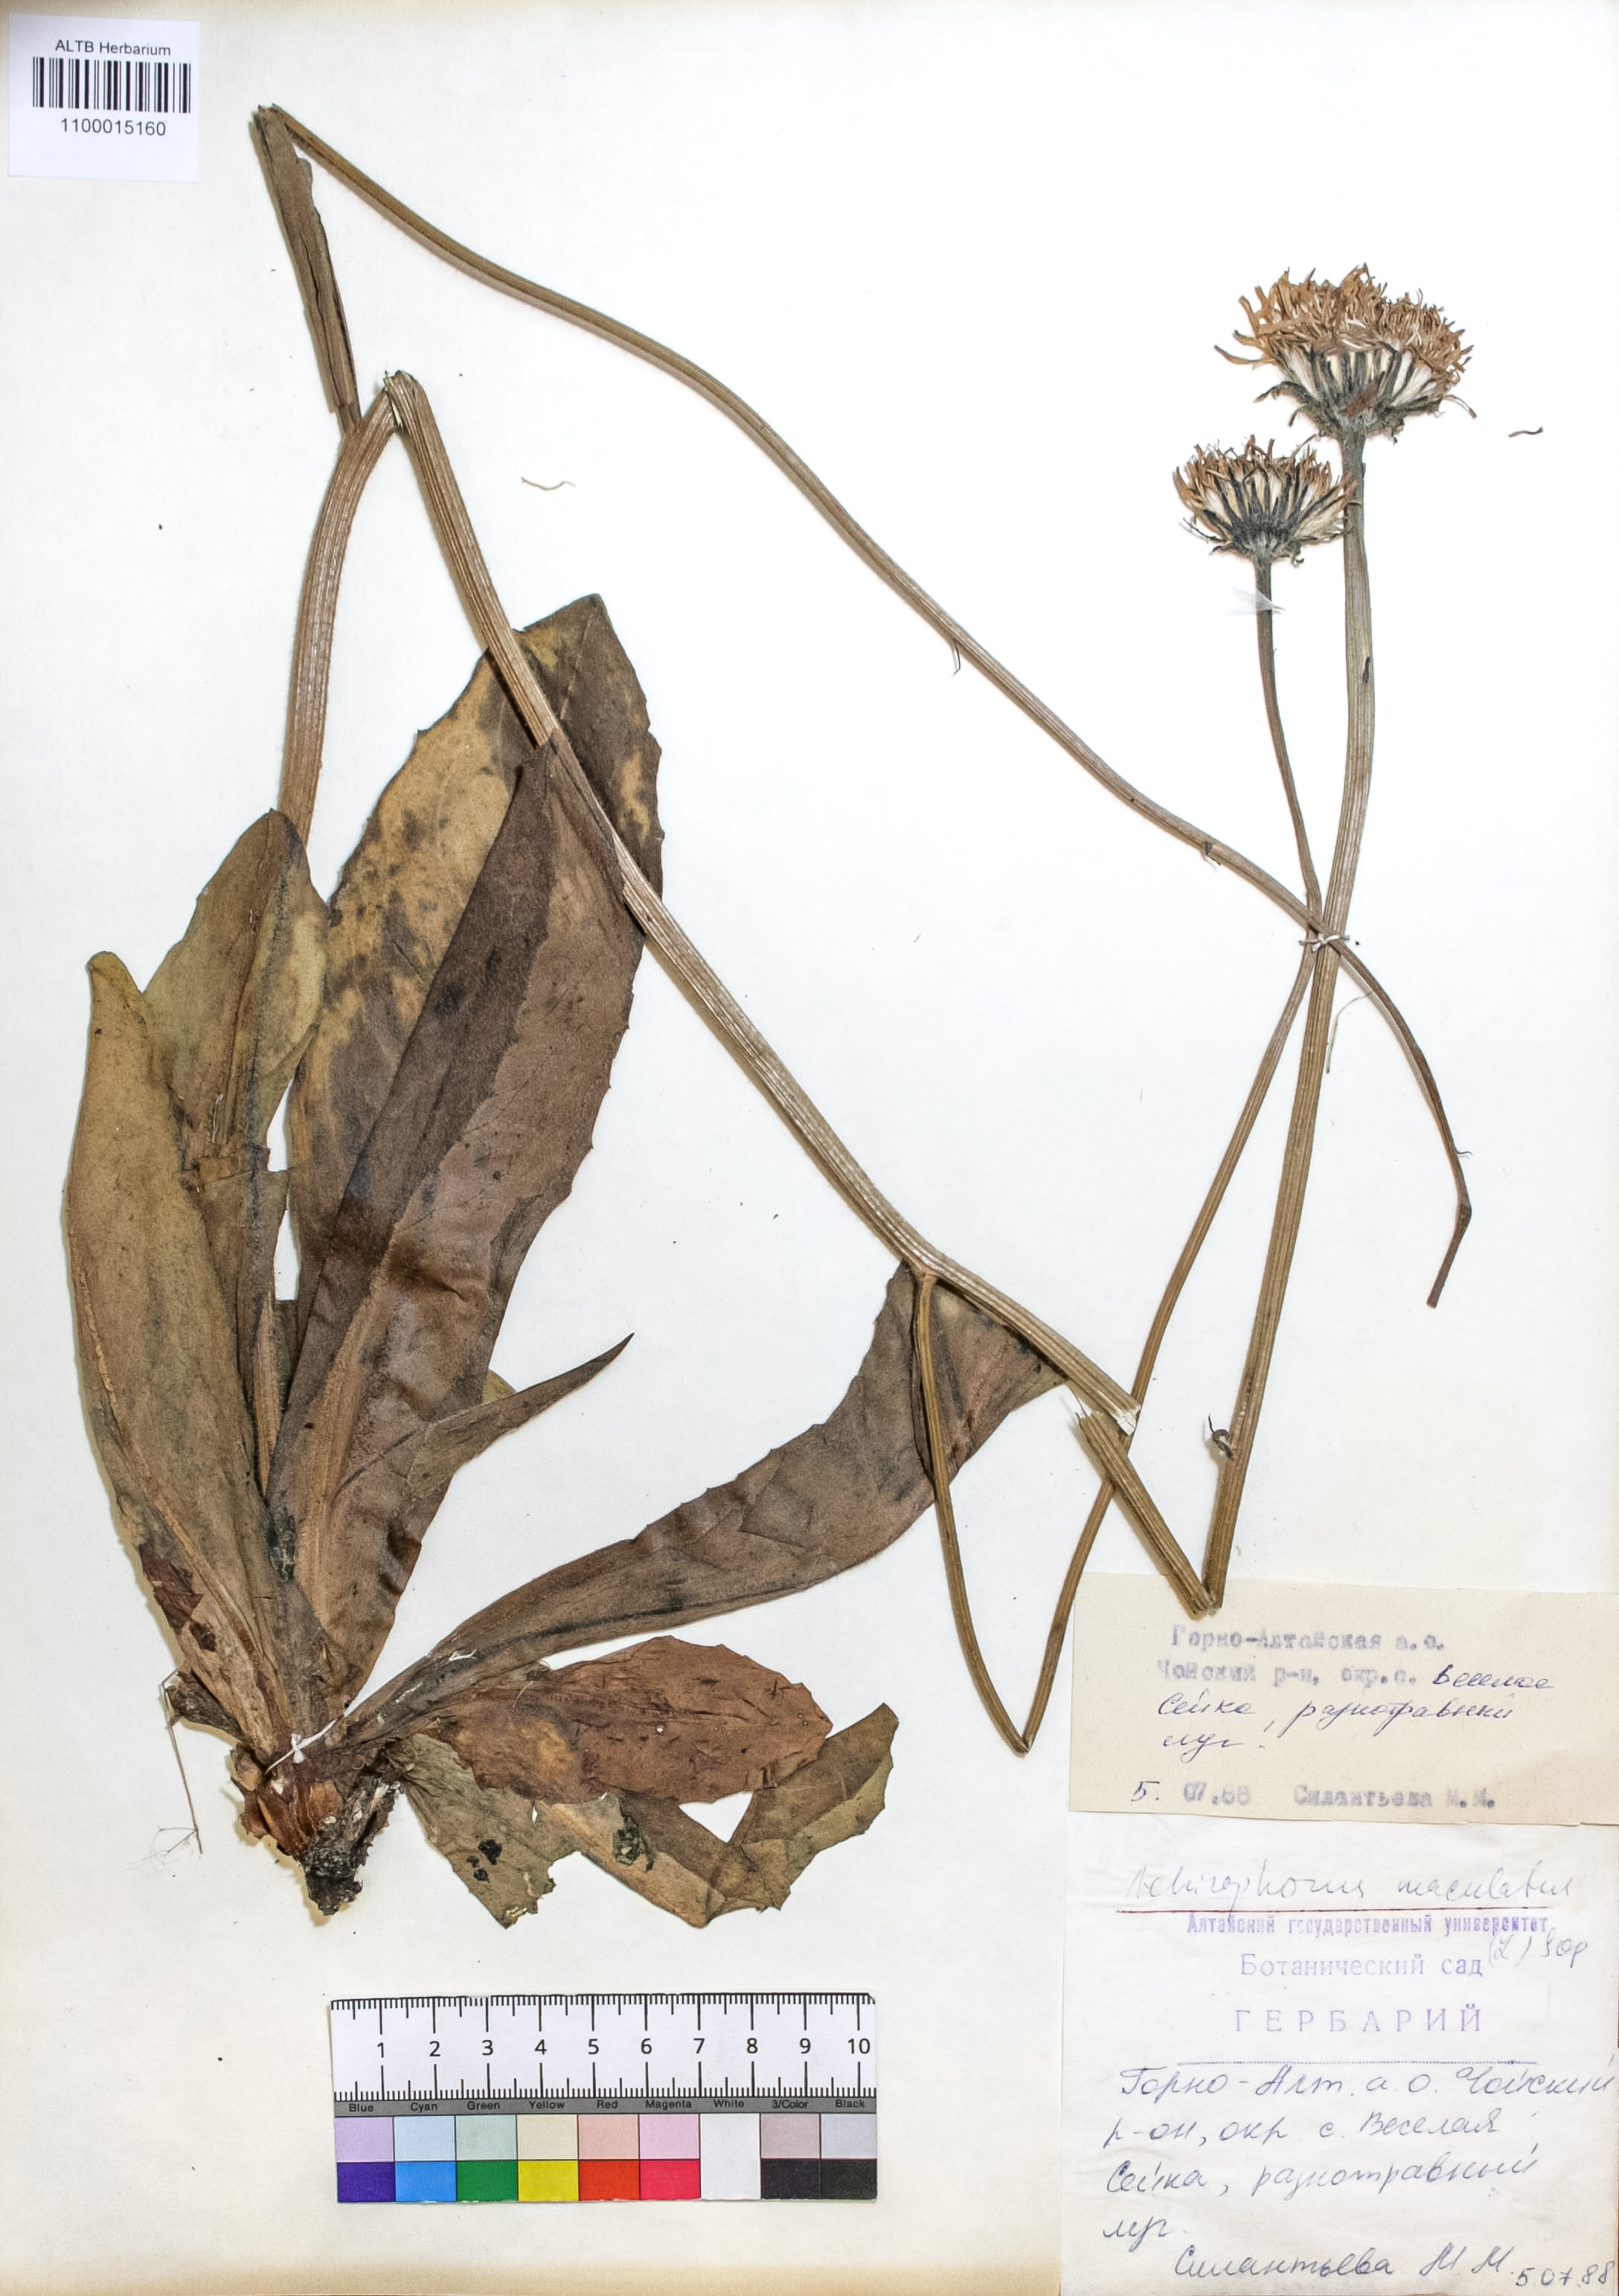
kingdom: Plantae
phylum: Tracheophyta
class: Magnoliopsida
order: Asterales
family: Asteraceae
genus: Trommsdorffia
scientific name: Trommsdorffia maculata
